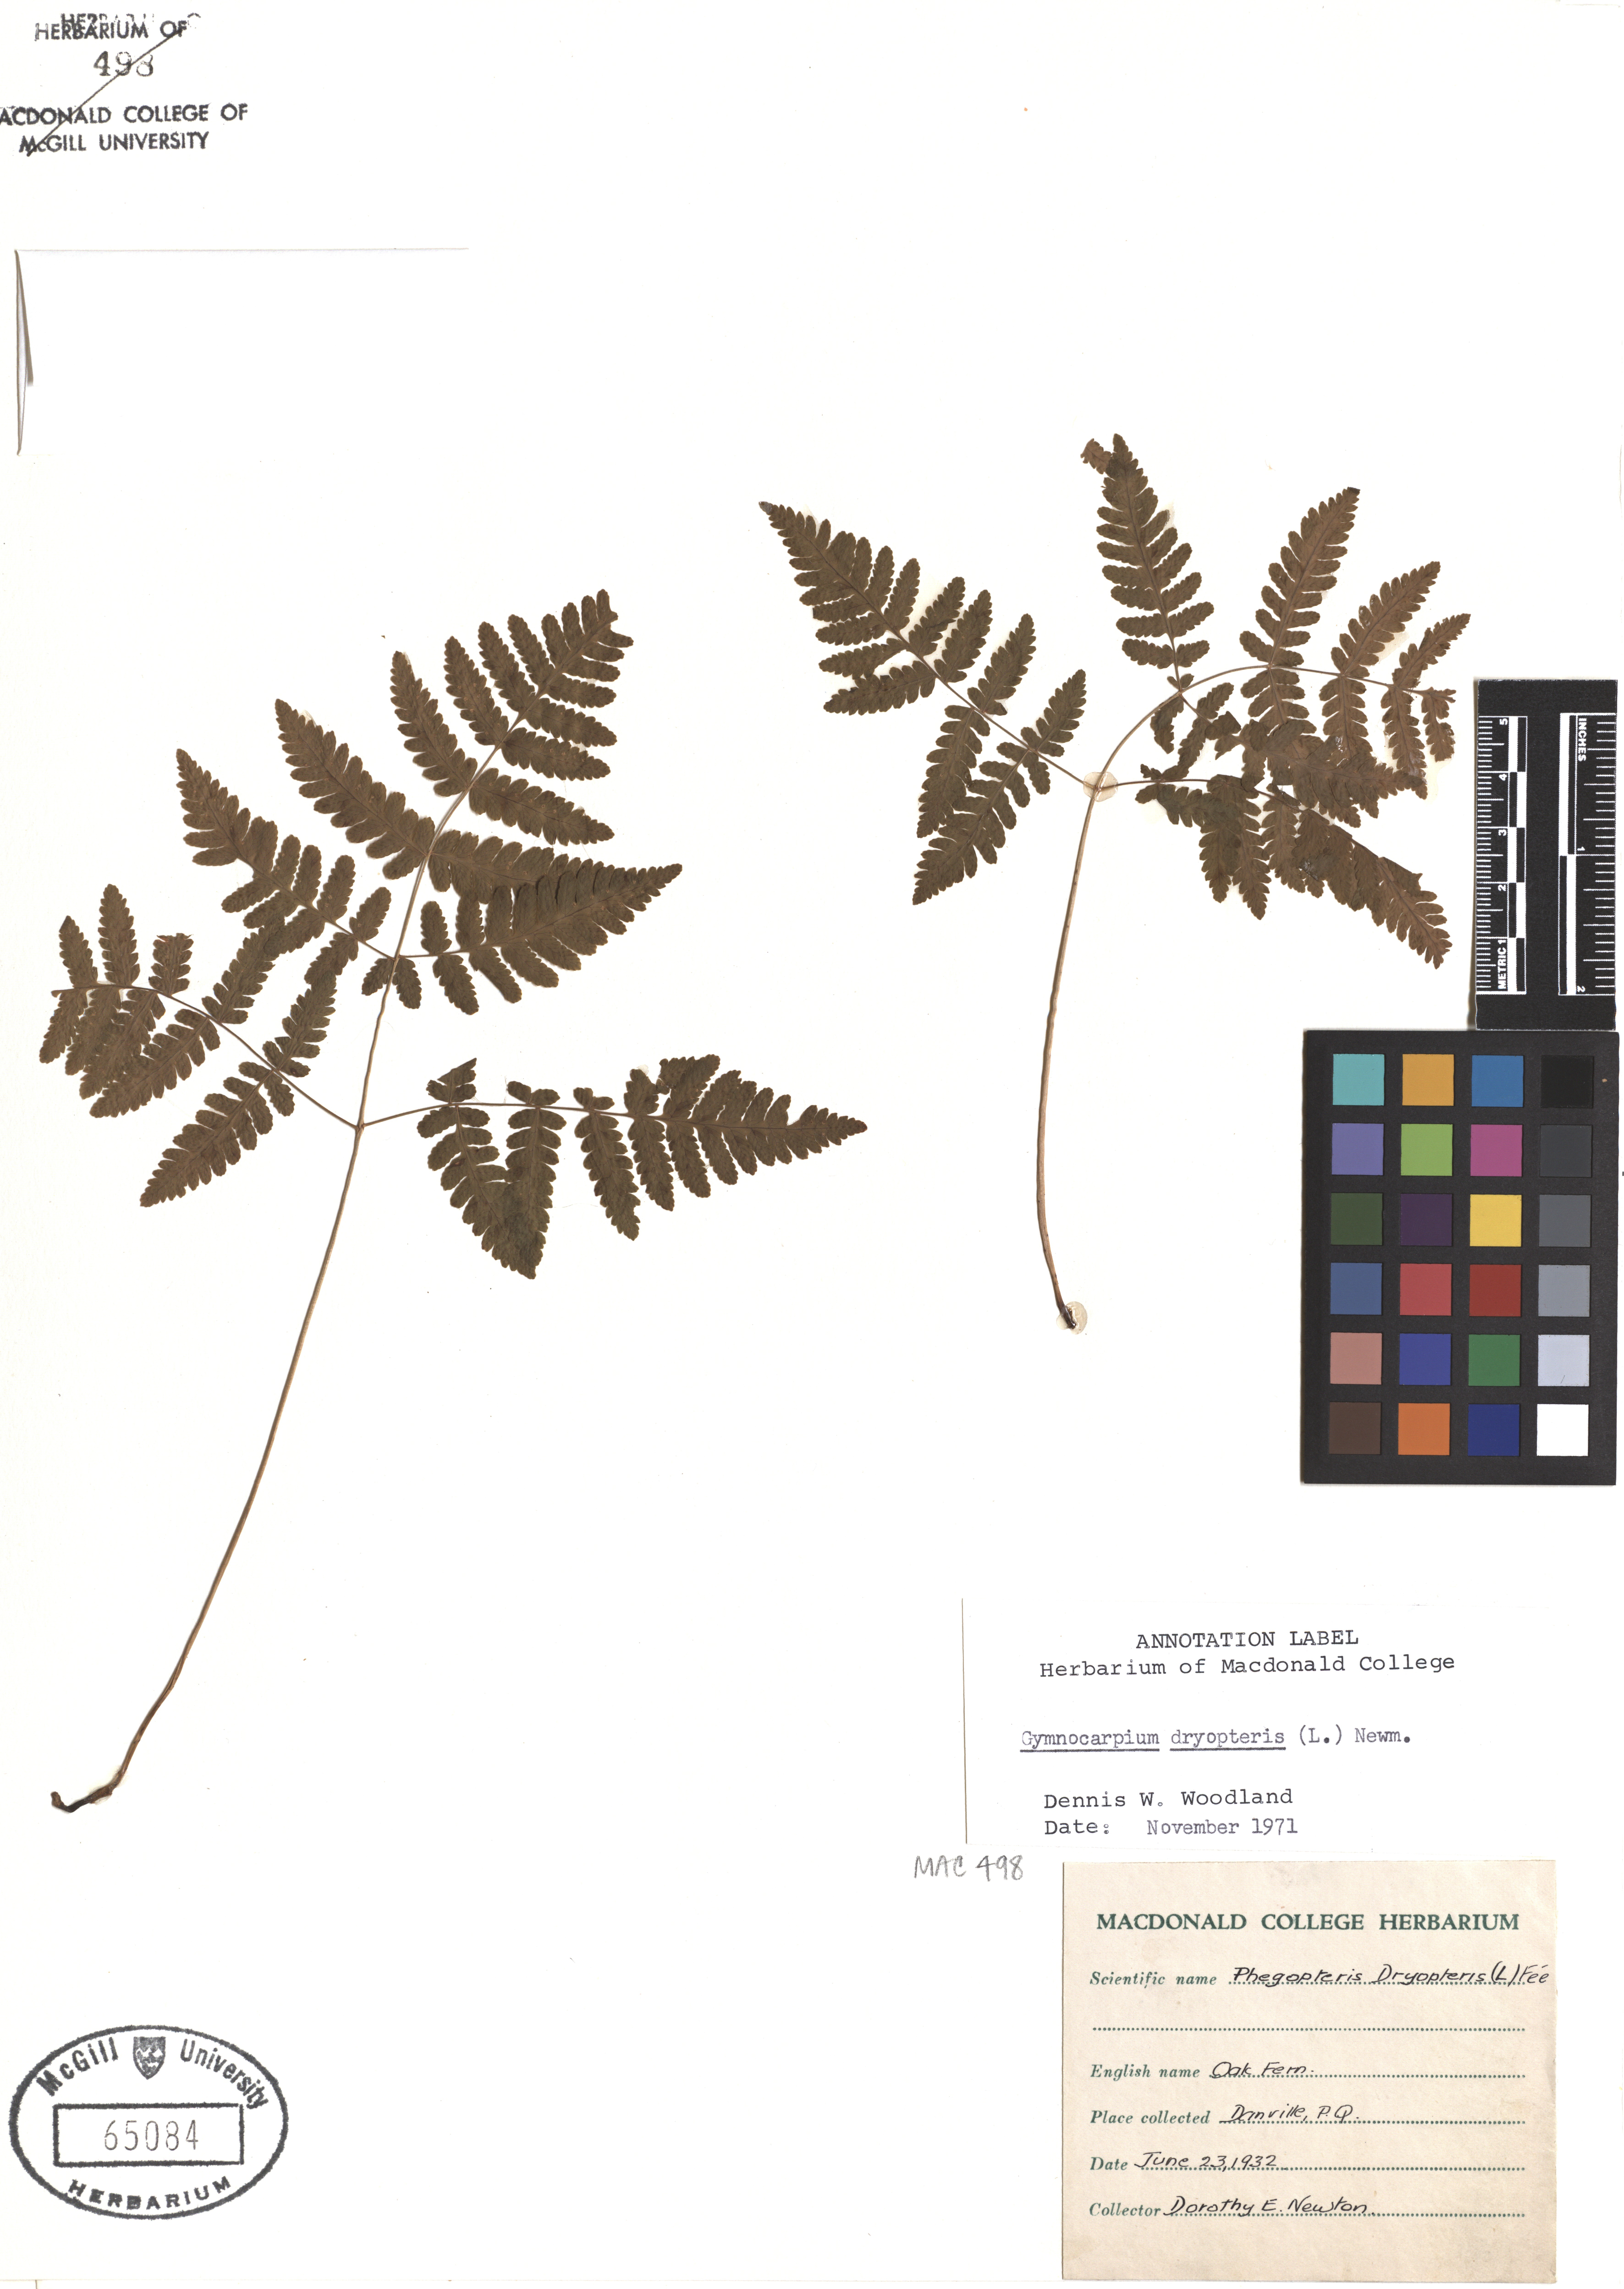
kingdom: Plantae
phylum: Tracheophyta
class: Polypodiopsida
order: Polypodiales
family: Cystopteridaceae
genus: Gymnocarpium
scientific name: Gymnocarpium dryopteris
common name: Oak fern
